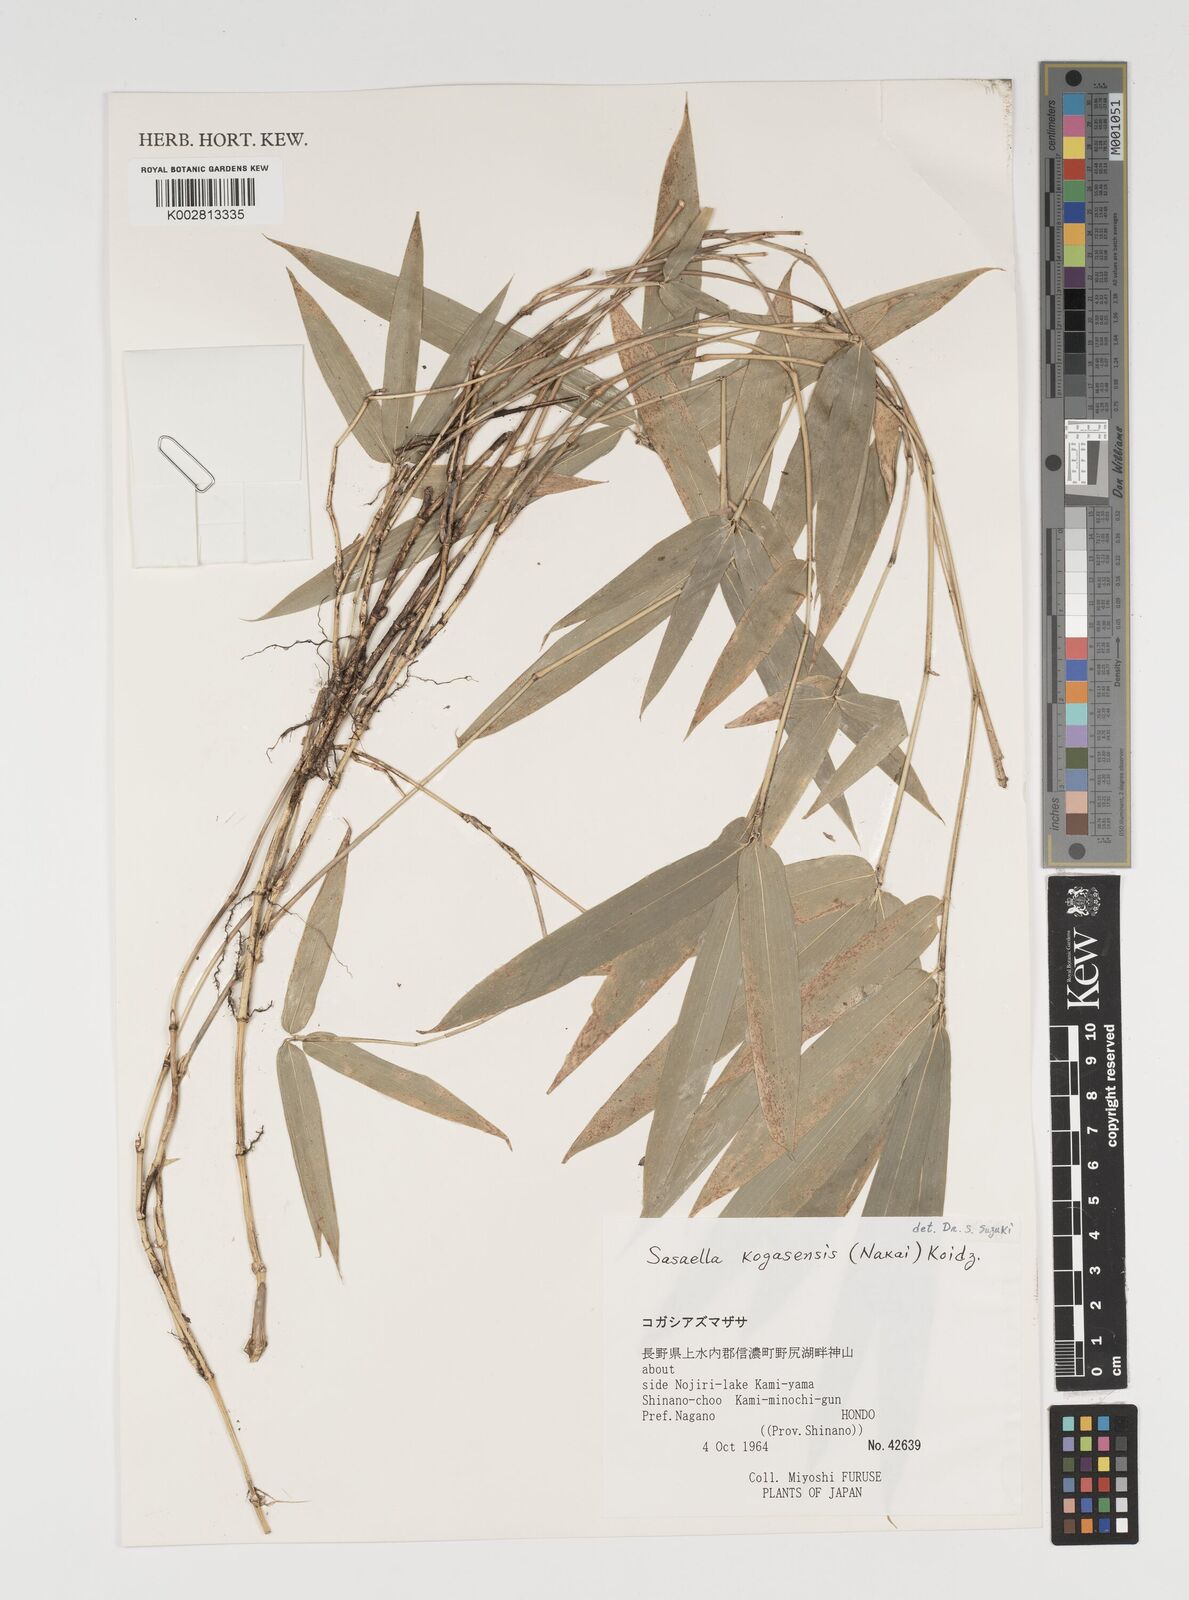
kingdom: Plantae
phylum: Tracheophyta
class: Liliopsida
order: Poales
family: Poaceae
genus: Sasaella
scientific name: Sasaella kogasensis
